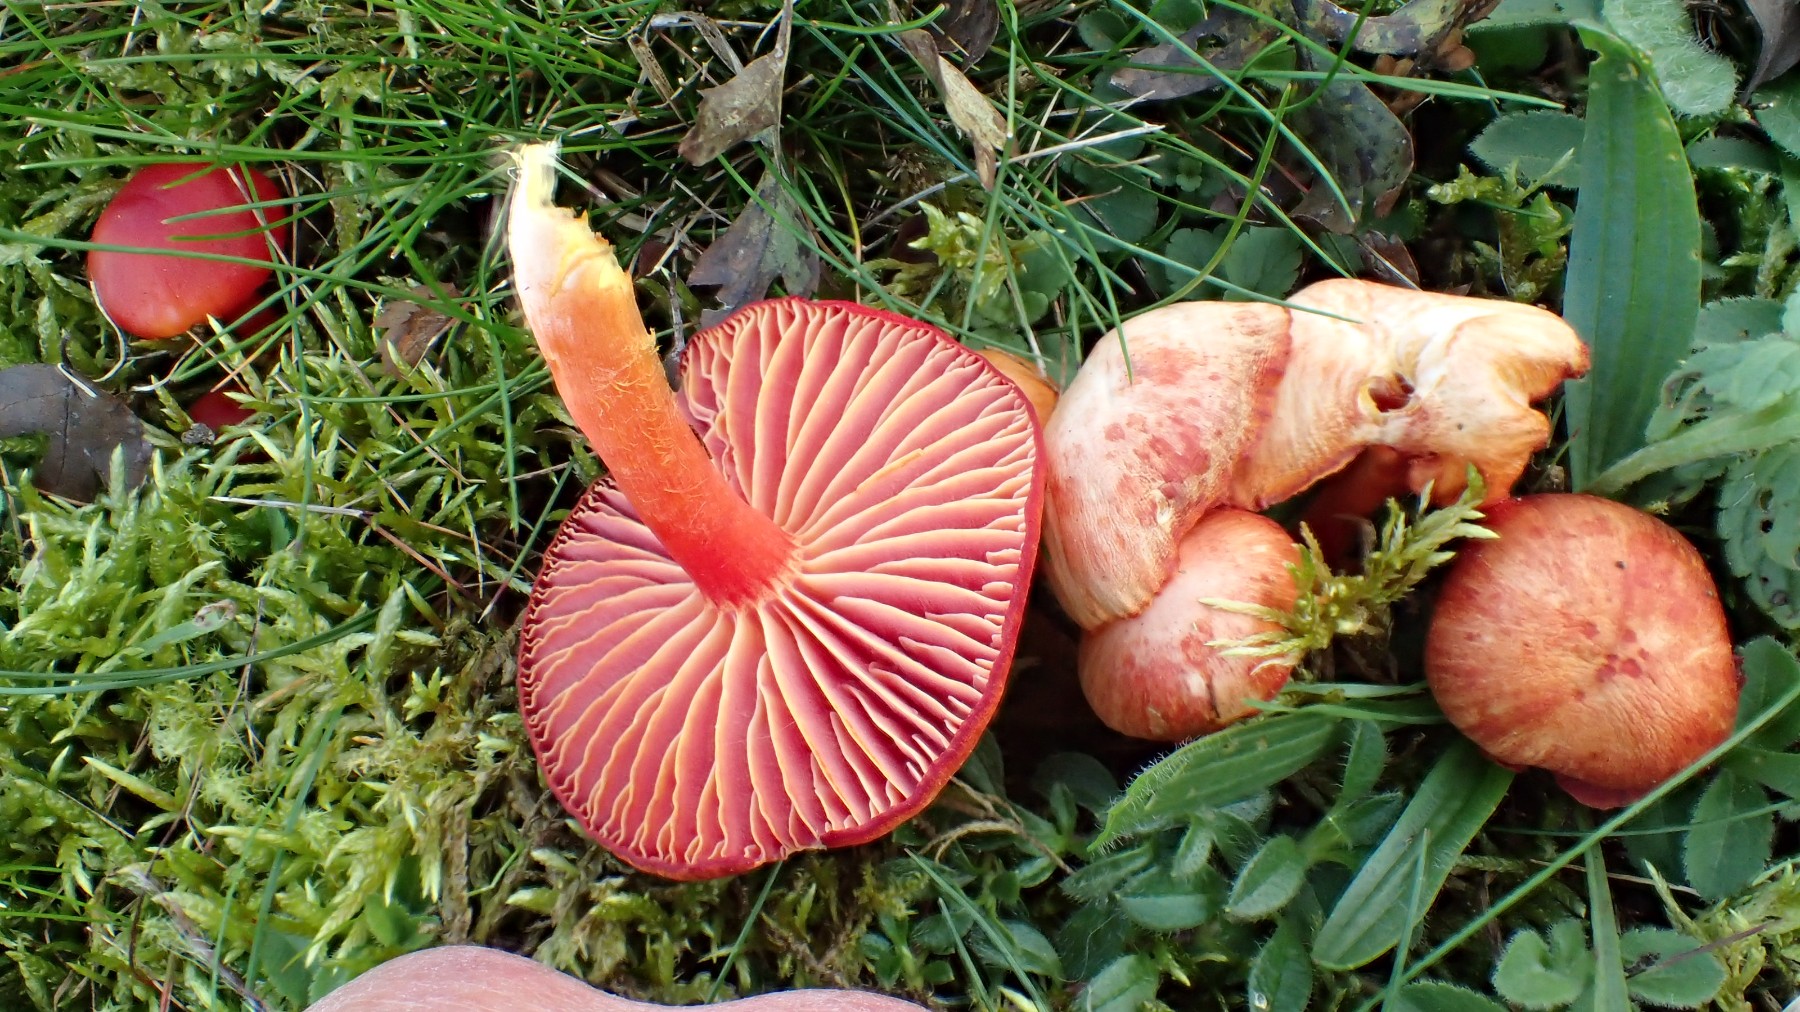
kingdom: Fungi
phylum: Basidiomycota
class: Agaricomycetes
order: Agaricales
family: Hygrophoraceae
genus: Hygrocybe
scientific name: Hygrocybe coccinea
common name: cinnober-vokshat
